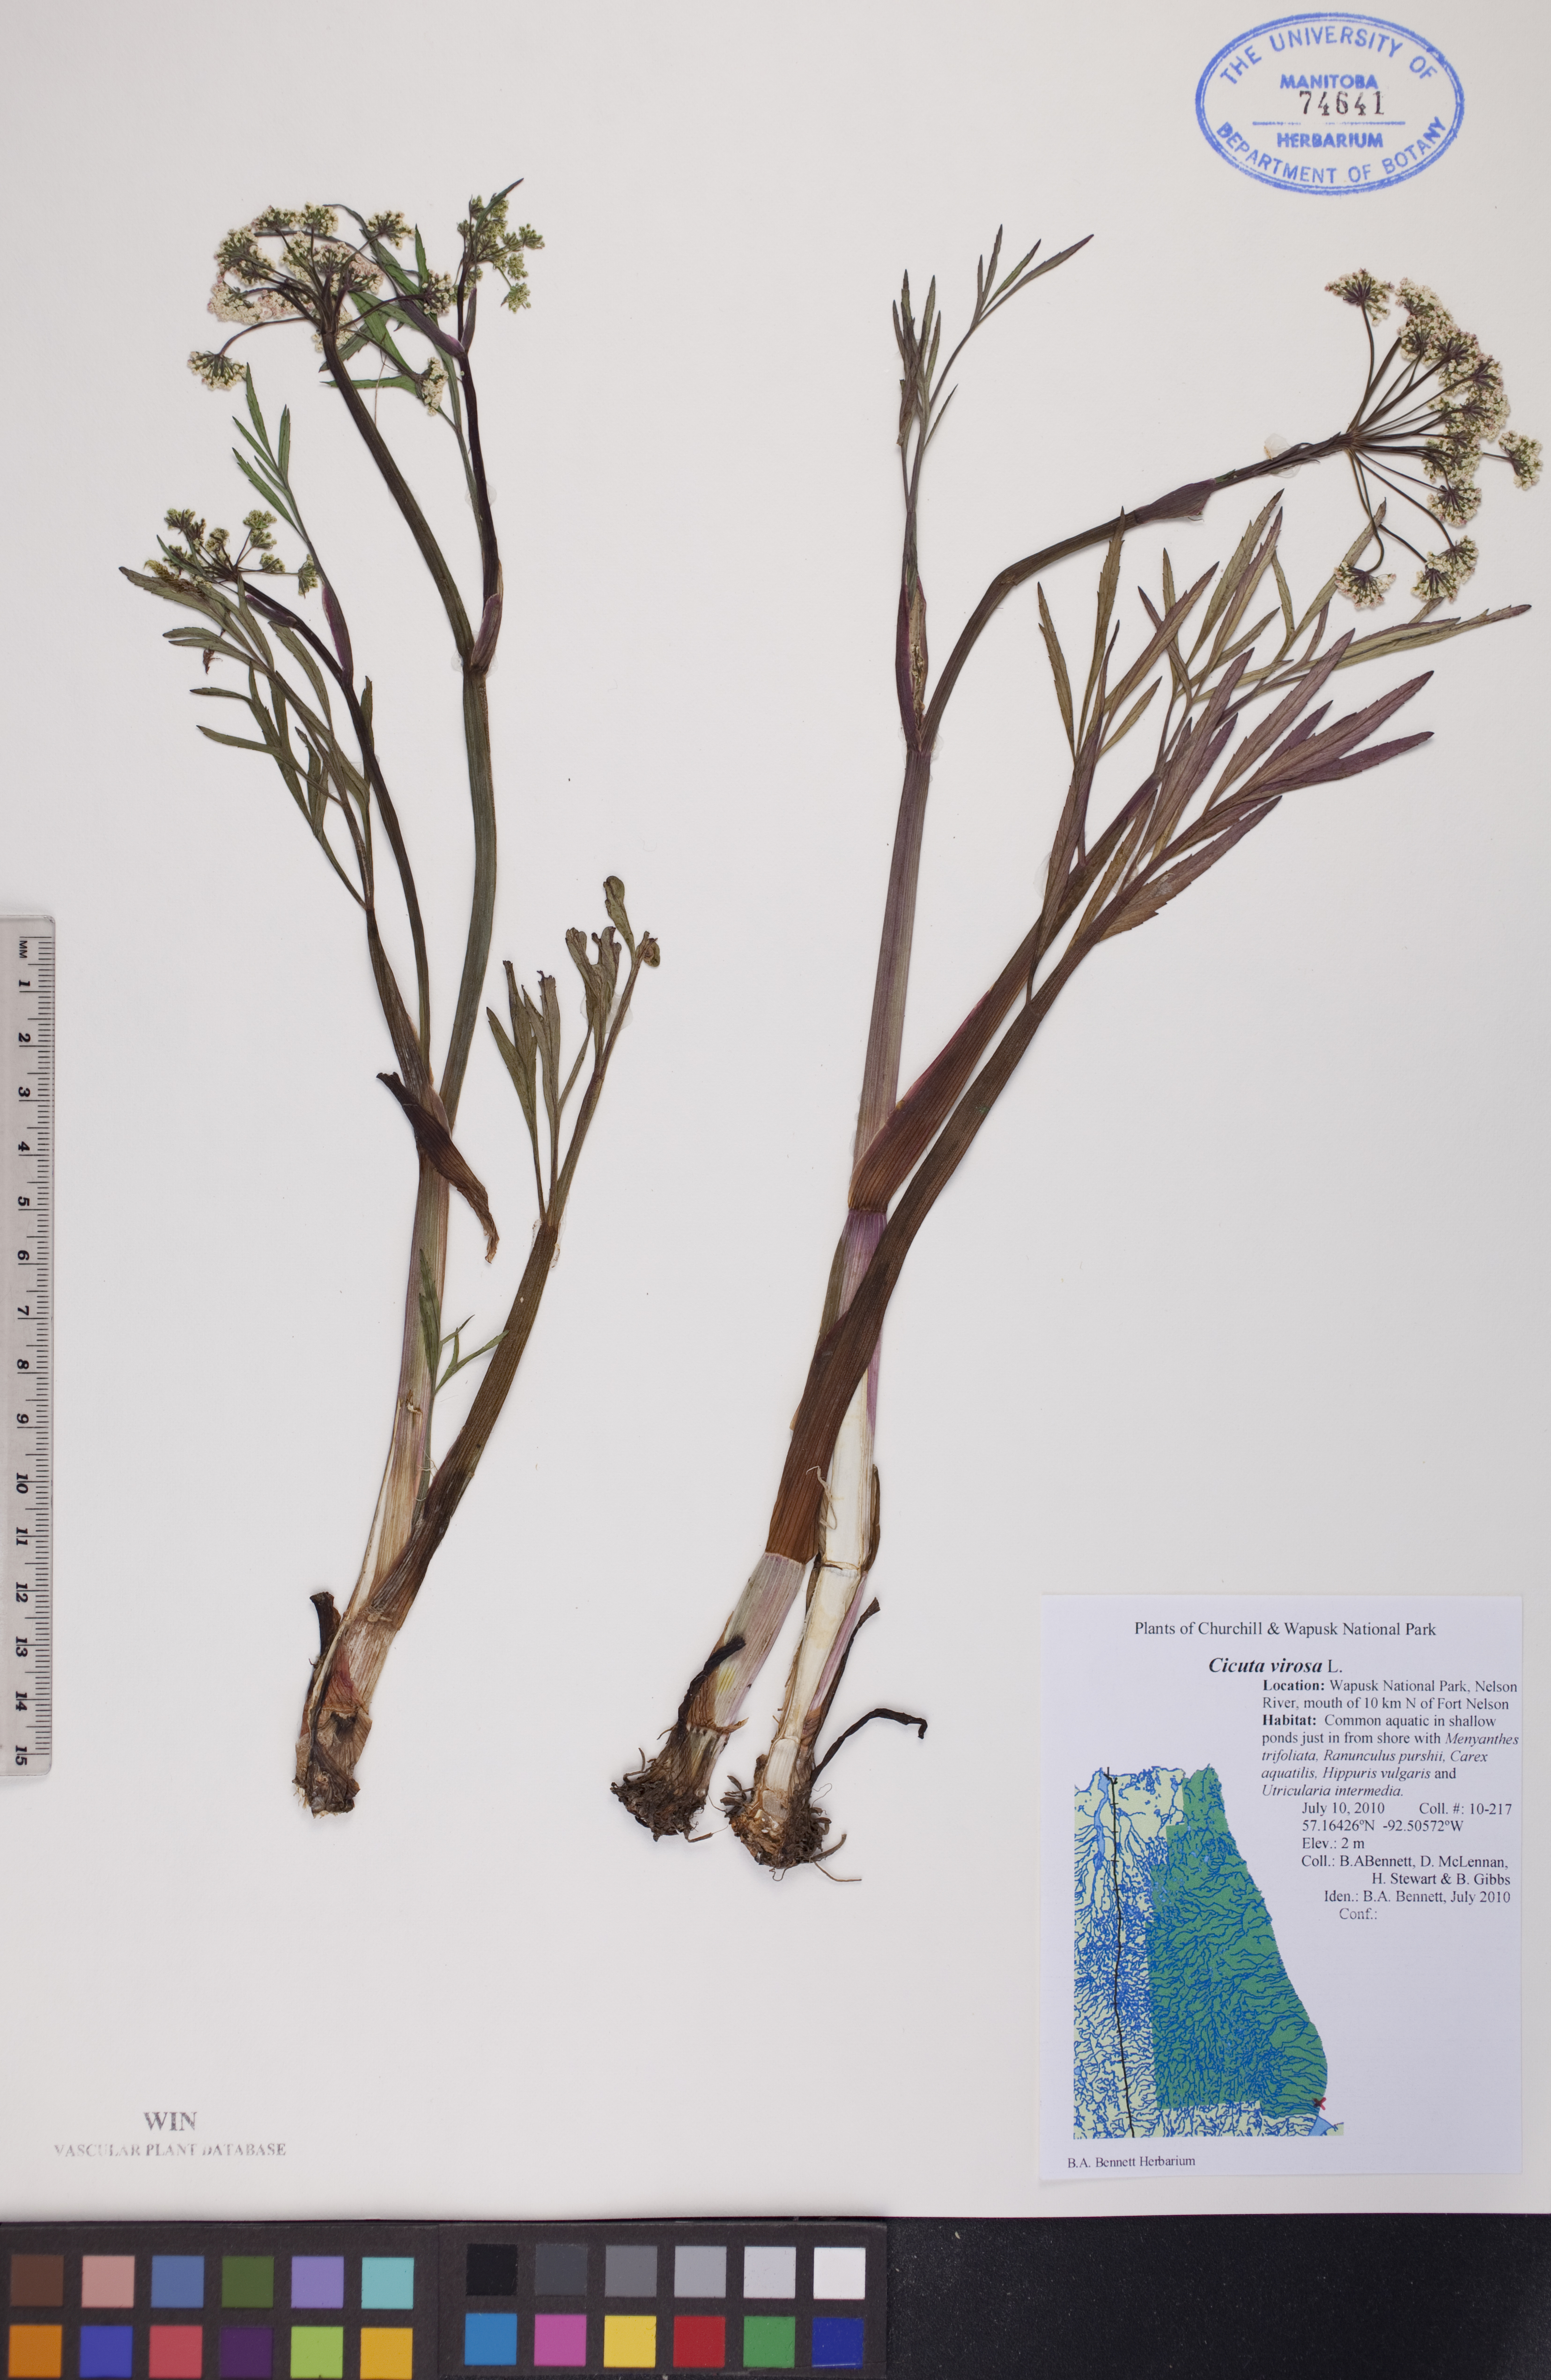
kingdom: Plantae
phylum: Tracheophyta
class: Magnoliopsida
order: Apiales
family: Apiaceae
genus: Cicuta
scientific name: Cicuta virosa
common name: Cowbane
